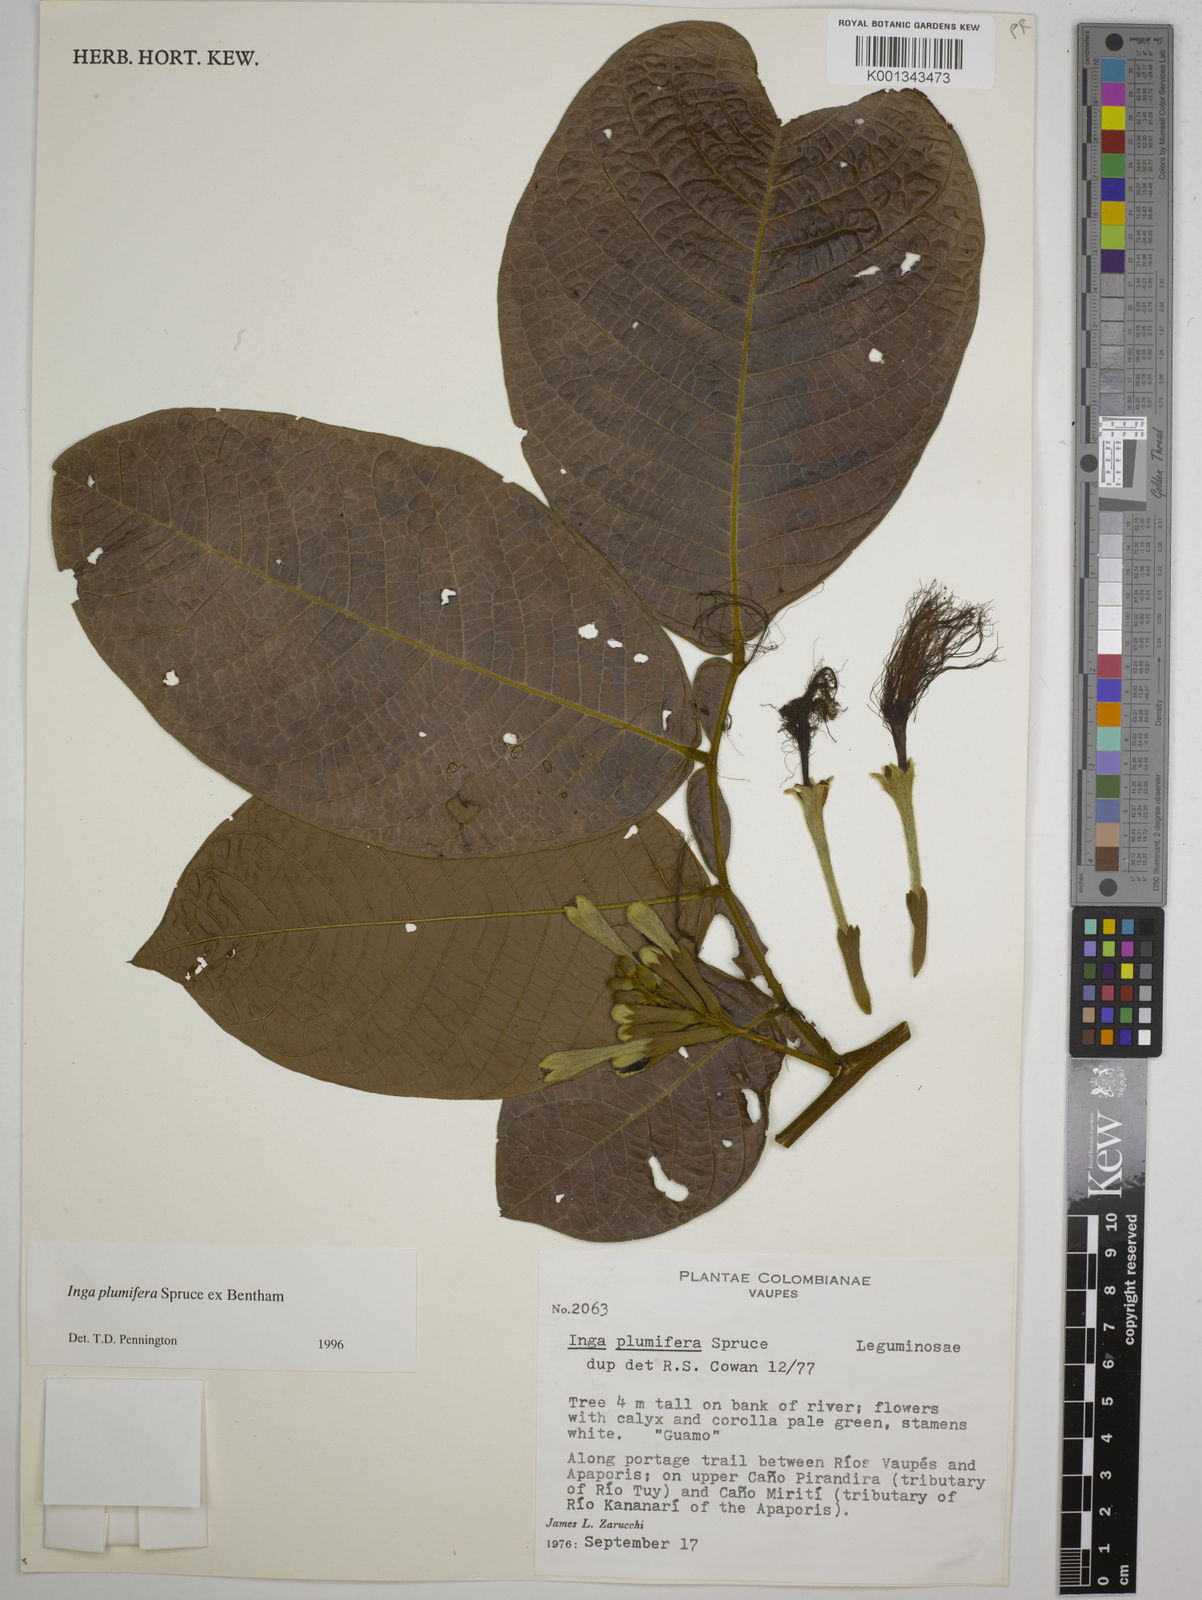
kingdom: Plantae
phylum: Tracheophyta
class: Magnoliopsida
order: Fabales
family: Fabaceae
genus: Inga
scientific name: Inga plumifera
